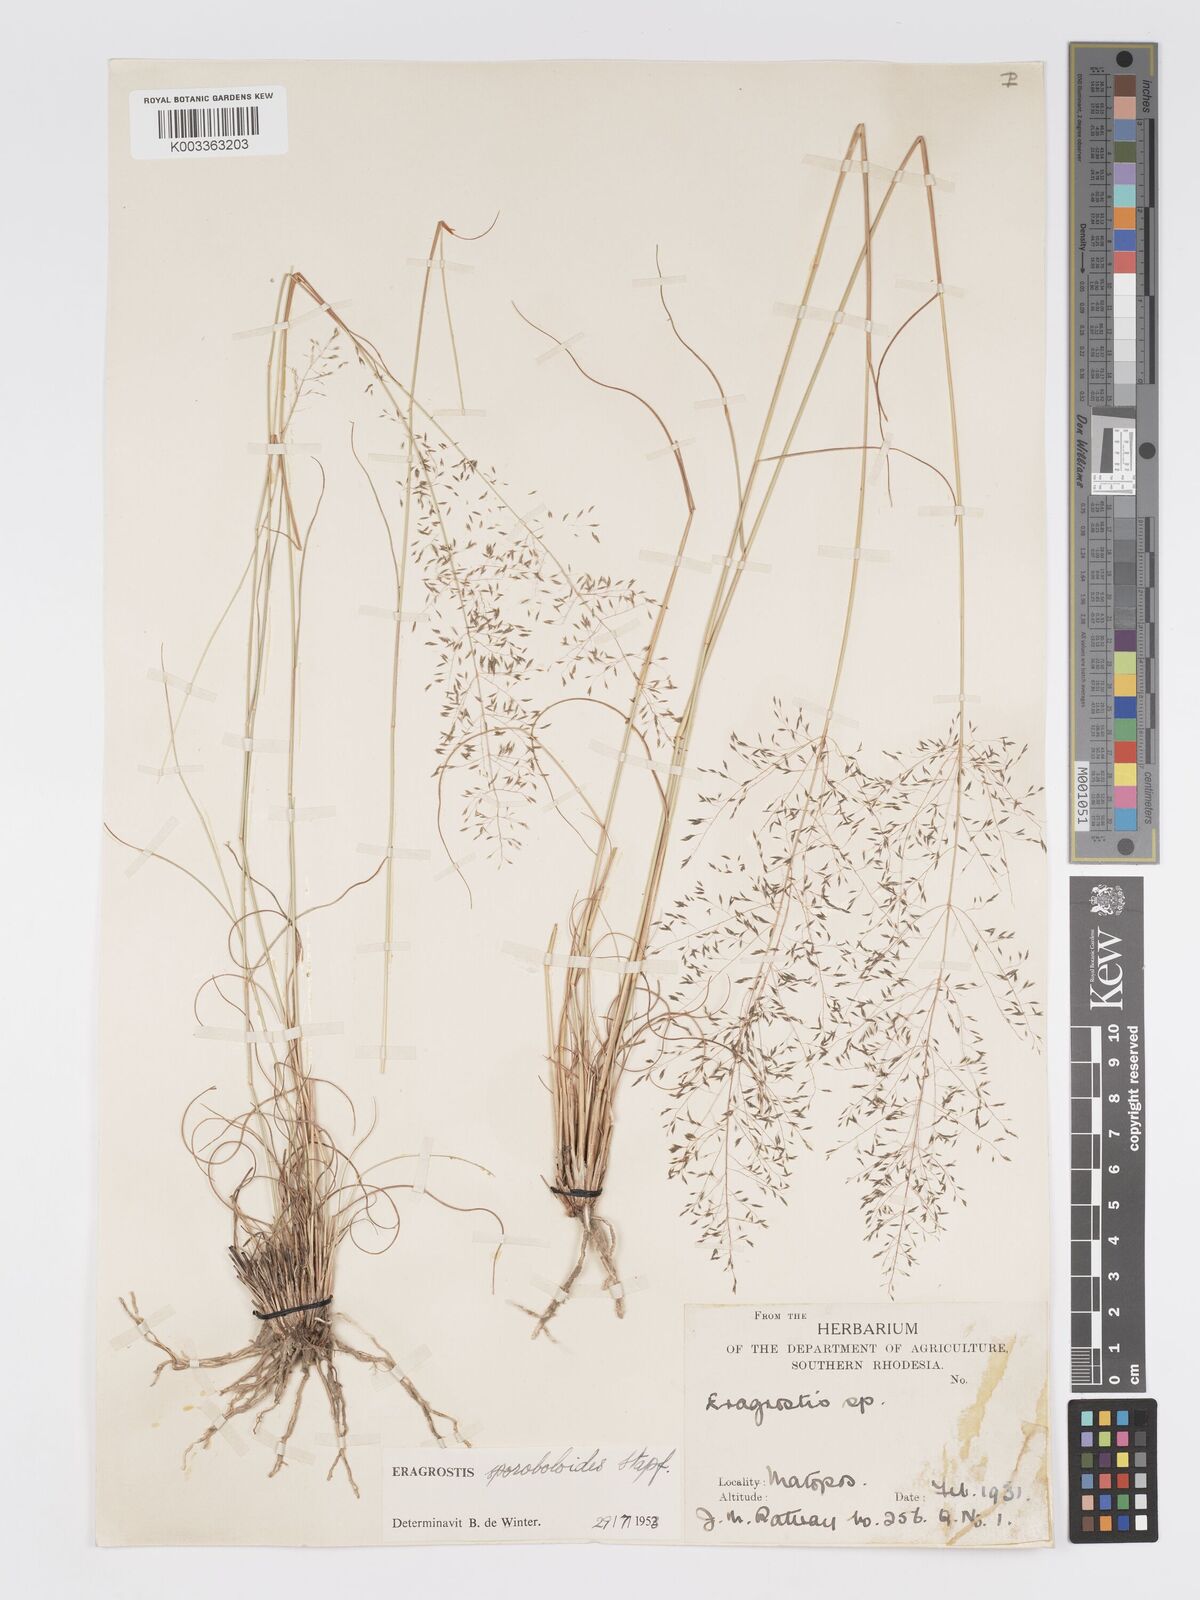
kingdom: Plantae
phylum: Tracheophyta
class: Liliopsida
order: Poales
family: Poaceae
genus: Eragrostis
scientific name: Eragrostis stapfii
